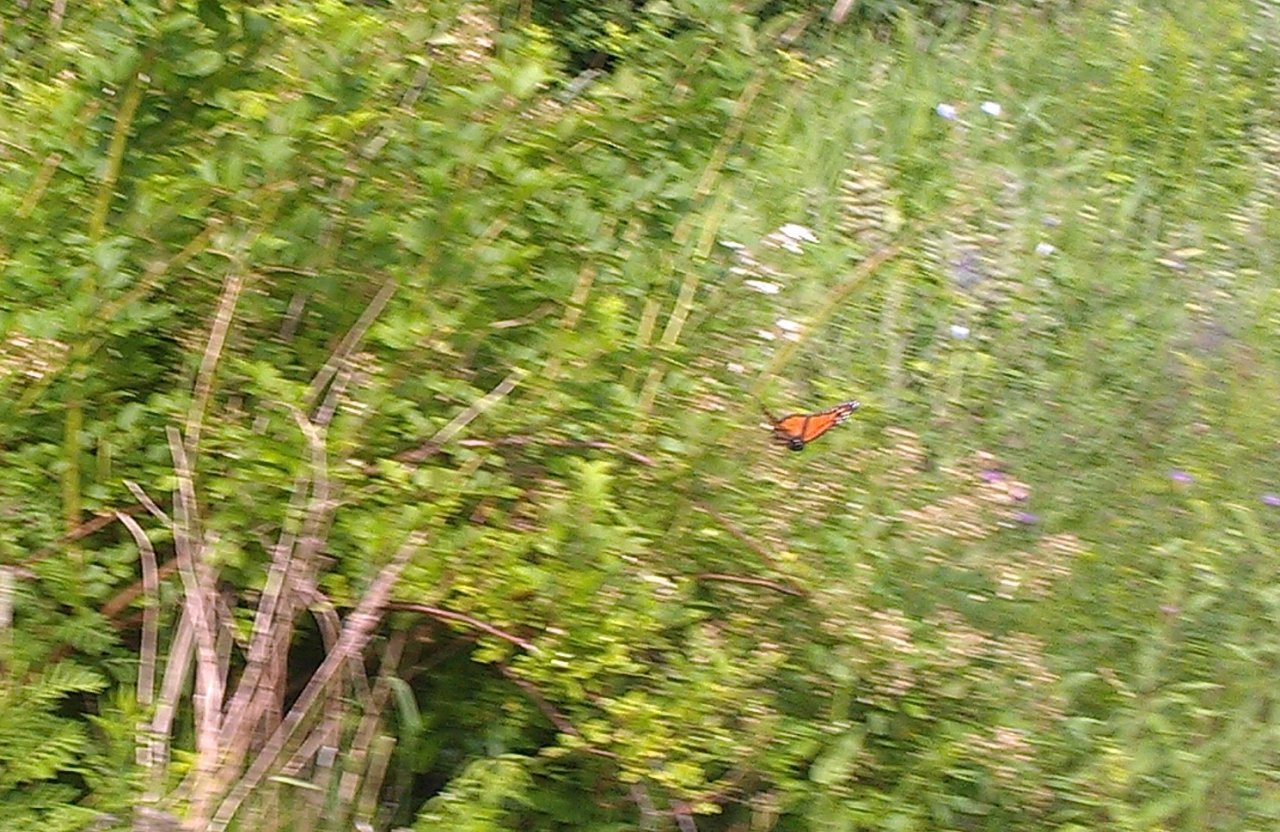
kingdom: Animalia
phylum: Arthropoda
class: Insecta
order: Lepidoptera
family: Nymphalidae
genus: Danaus
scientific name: Danaus plexippus
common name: Monarch
